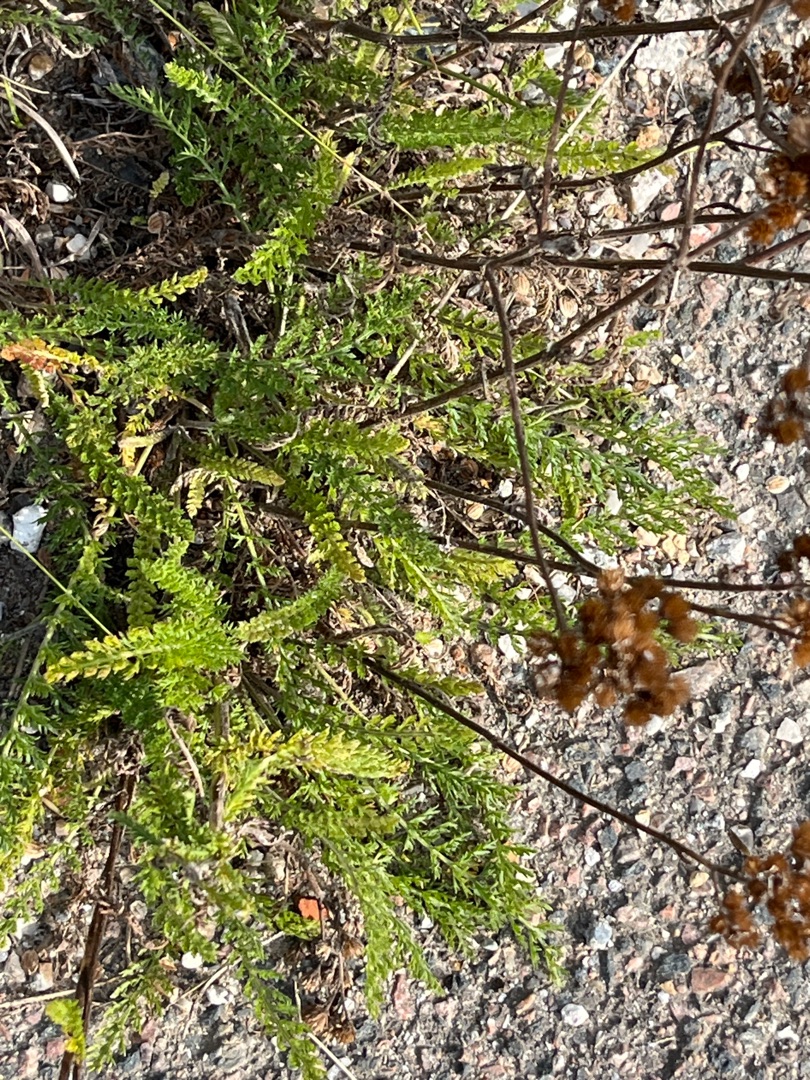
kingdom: Plantae
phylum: Tracheophyta
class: Magnoliopsida
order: Asterales
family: Asteraceae
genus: Achillea
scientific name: Achillea millefolium
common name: Almindelig røllike
